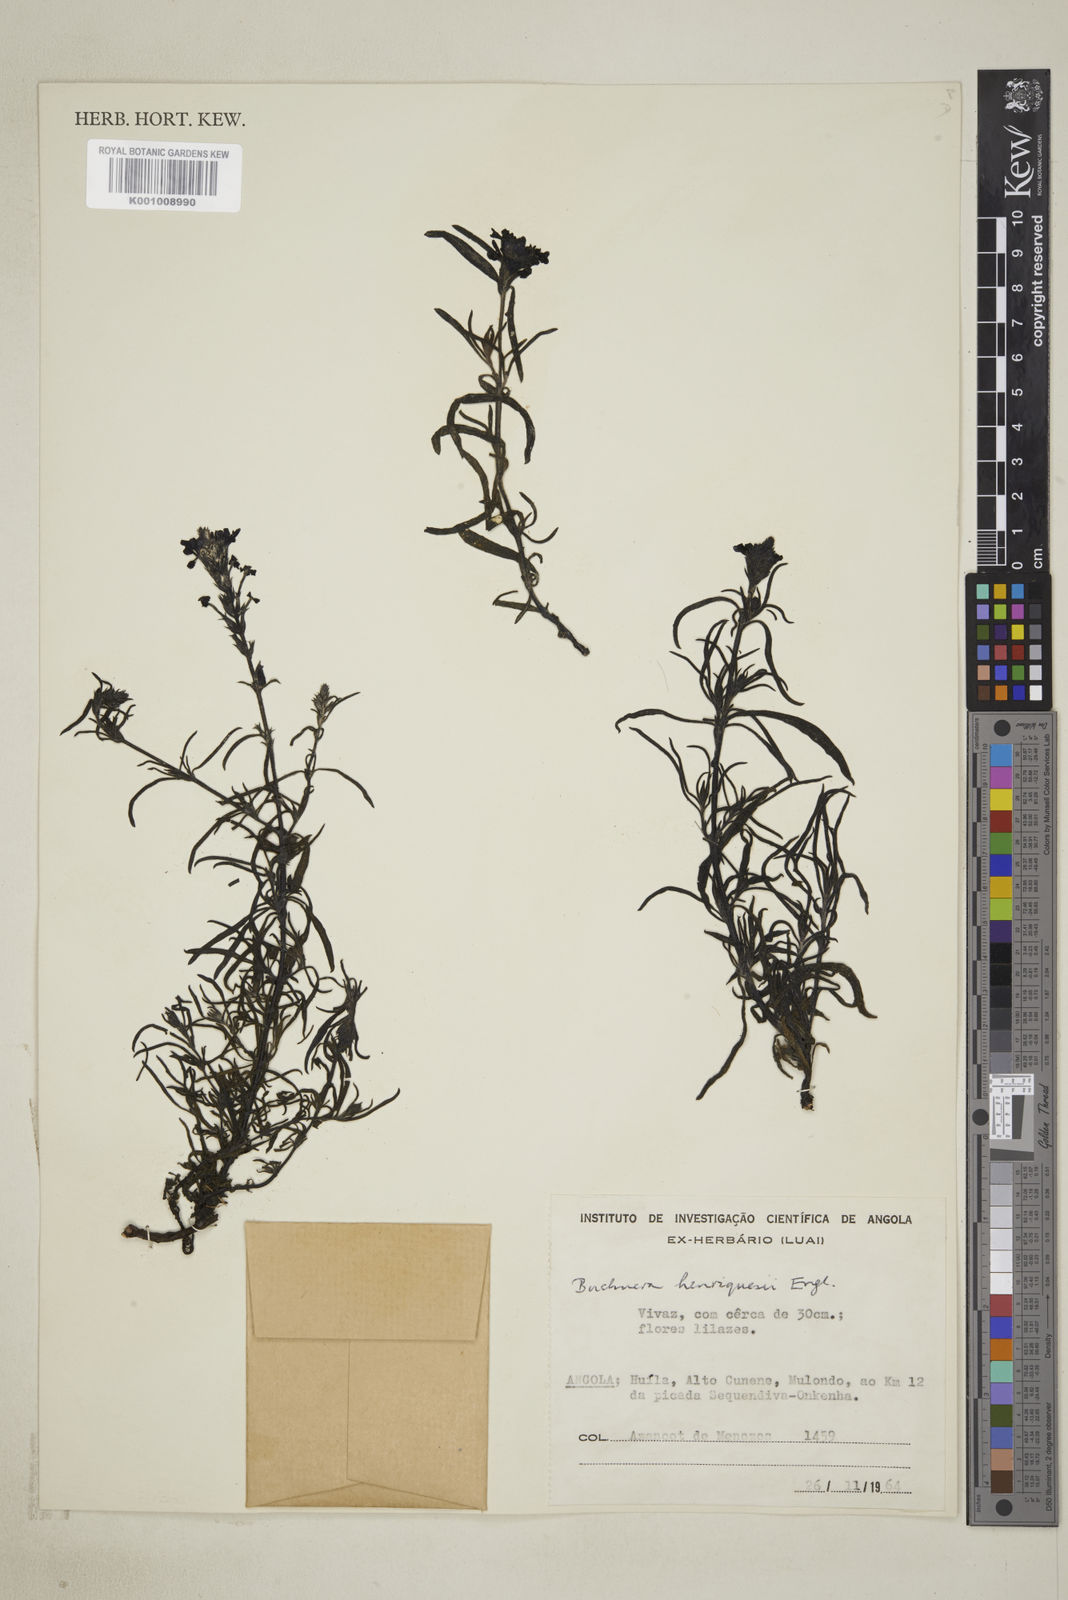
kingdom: Plantae
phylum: Tracheophyta
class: Magnoliopsida
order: Lamiales
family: Orobanchaceae
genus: Buchnera
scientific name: Buchnera henriquesii
